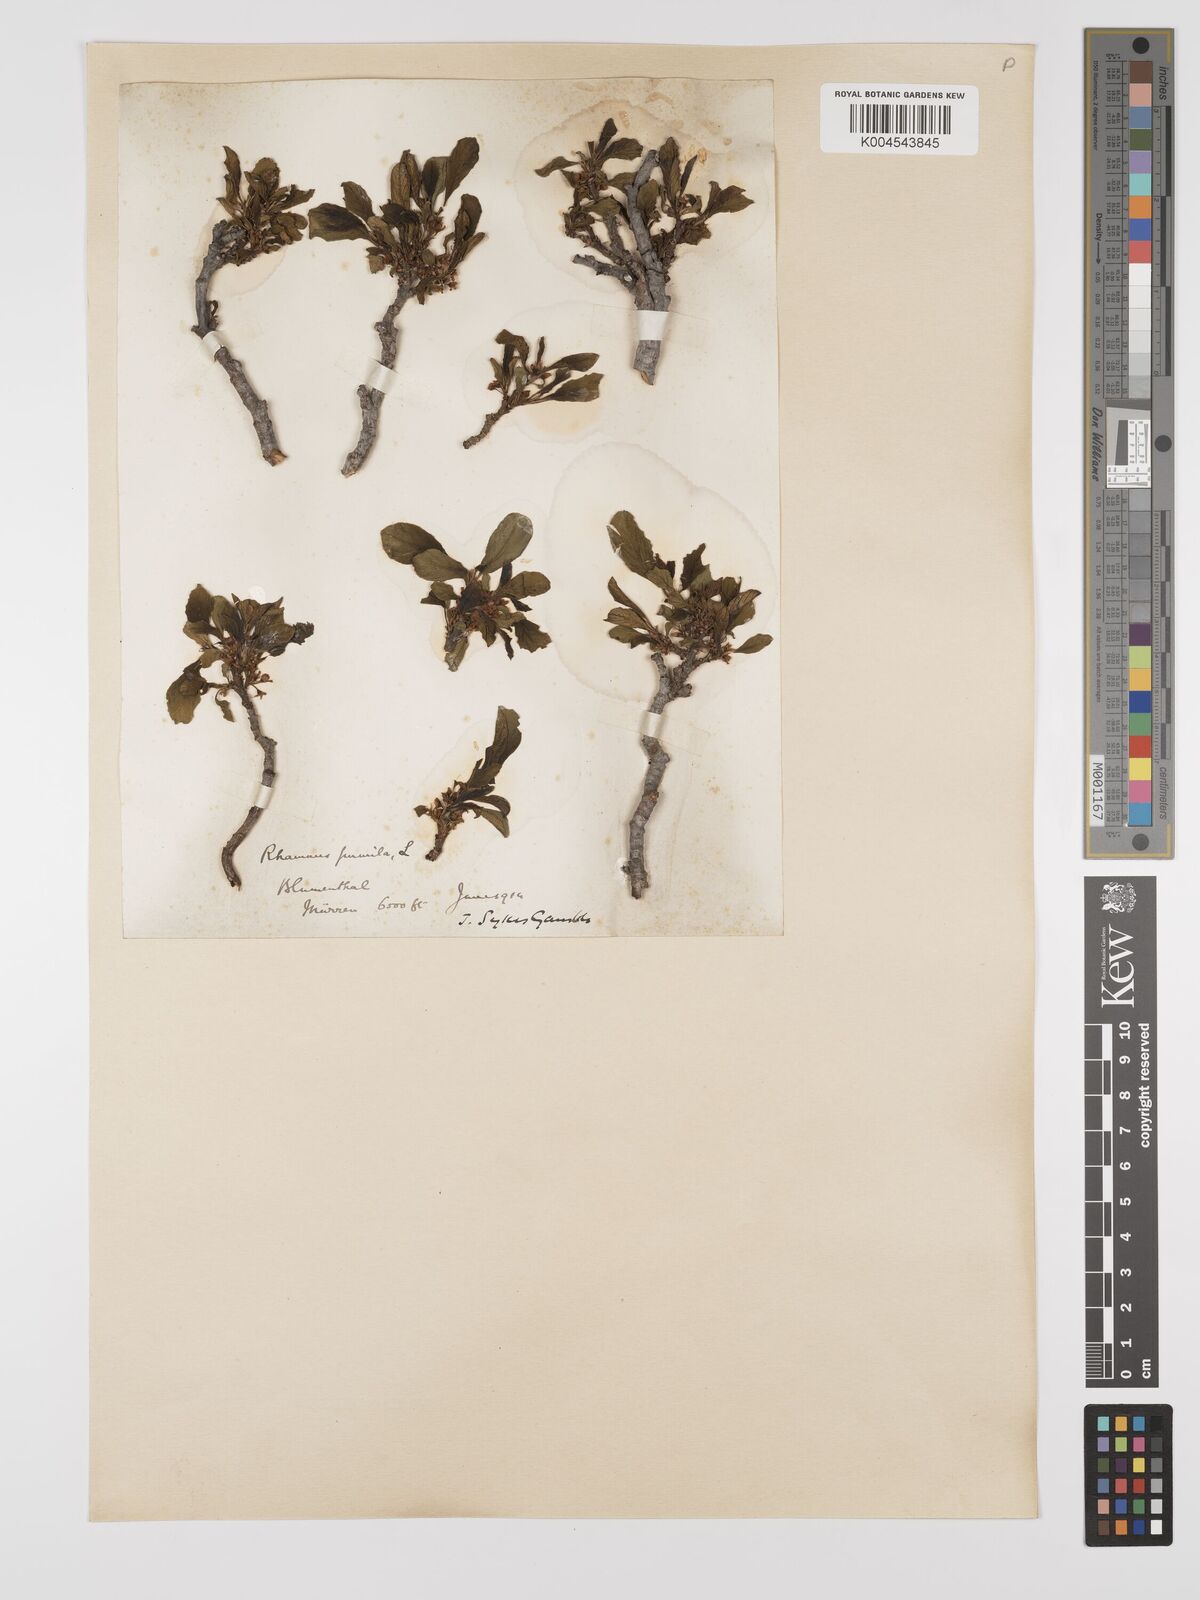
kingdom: Plantae
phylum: Tracheophyta
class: Magnoliopsida
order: Rosales
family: Rhamnaceae
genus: Rhamnus
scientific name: Rhamnus
